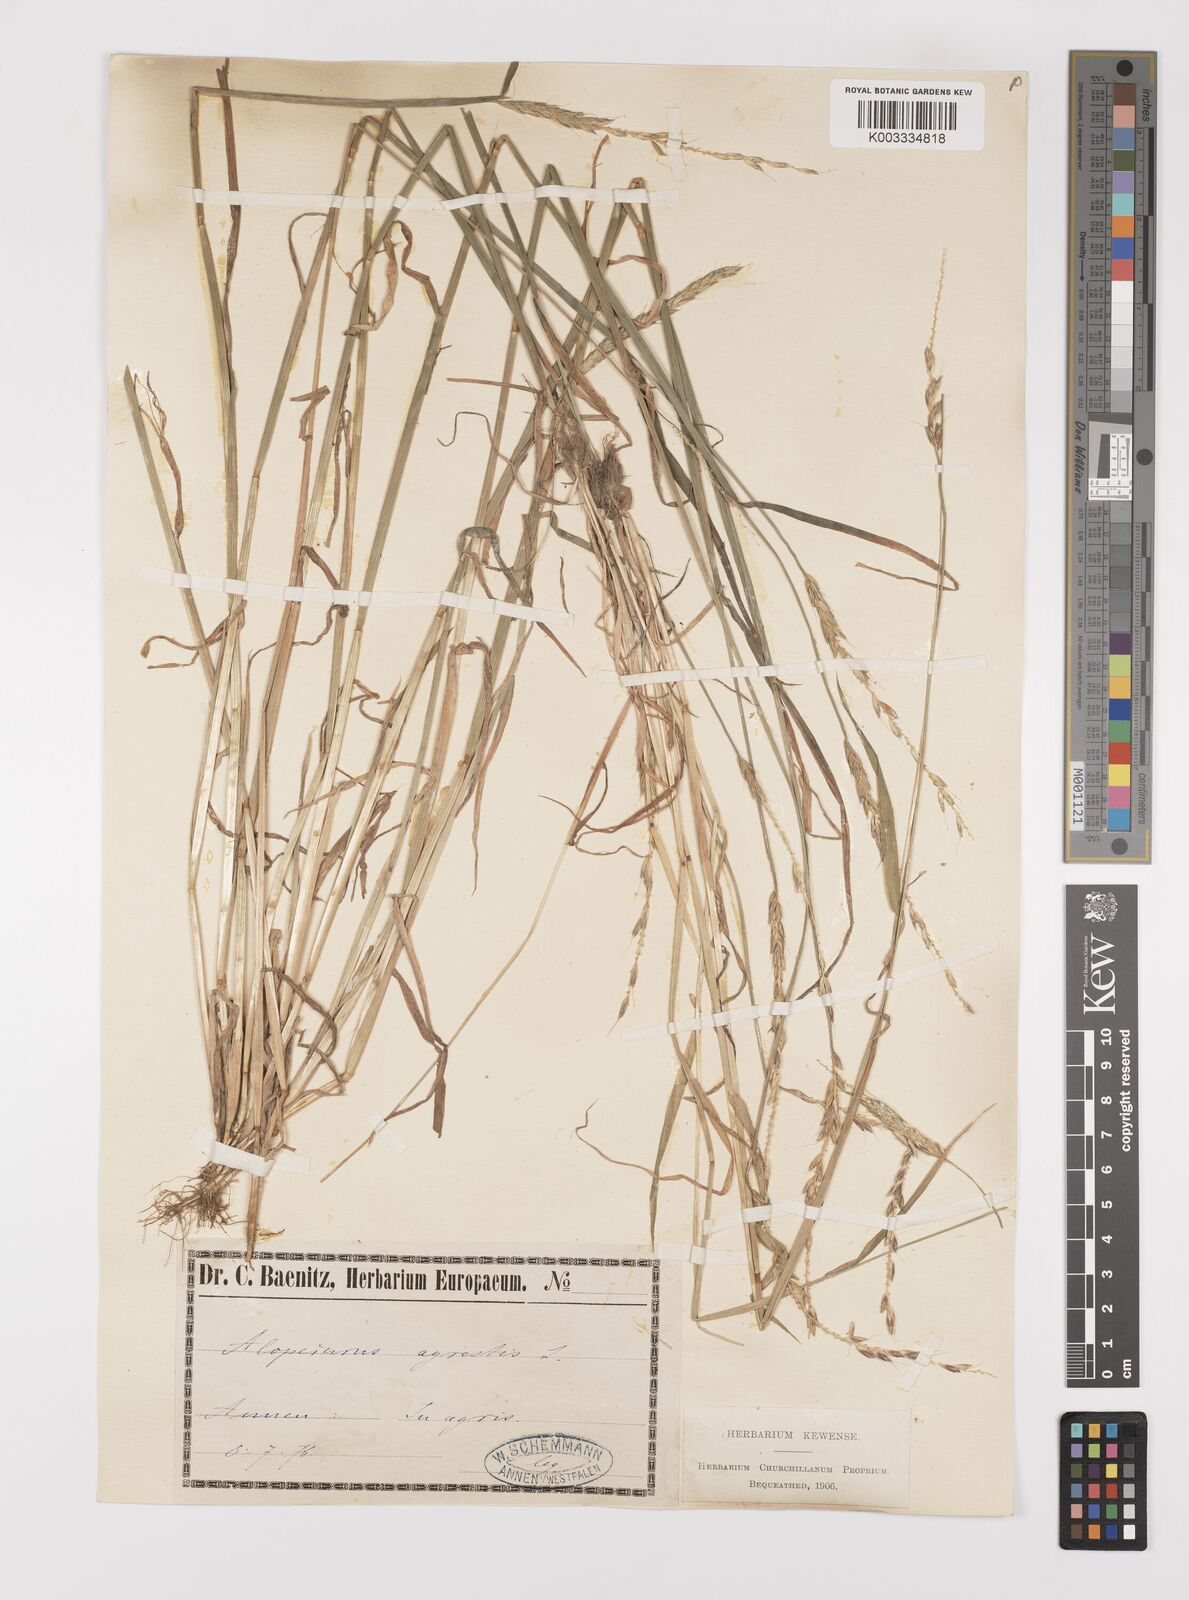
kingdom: Plantae
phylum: Tracheophyta
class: Liliopsida
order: Poales
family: Poaceae
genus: Alopecurus
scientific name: Alopecurus myosuroides
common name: Black-grass
